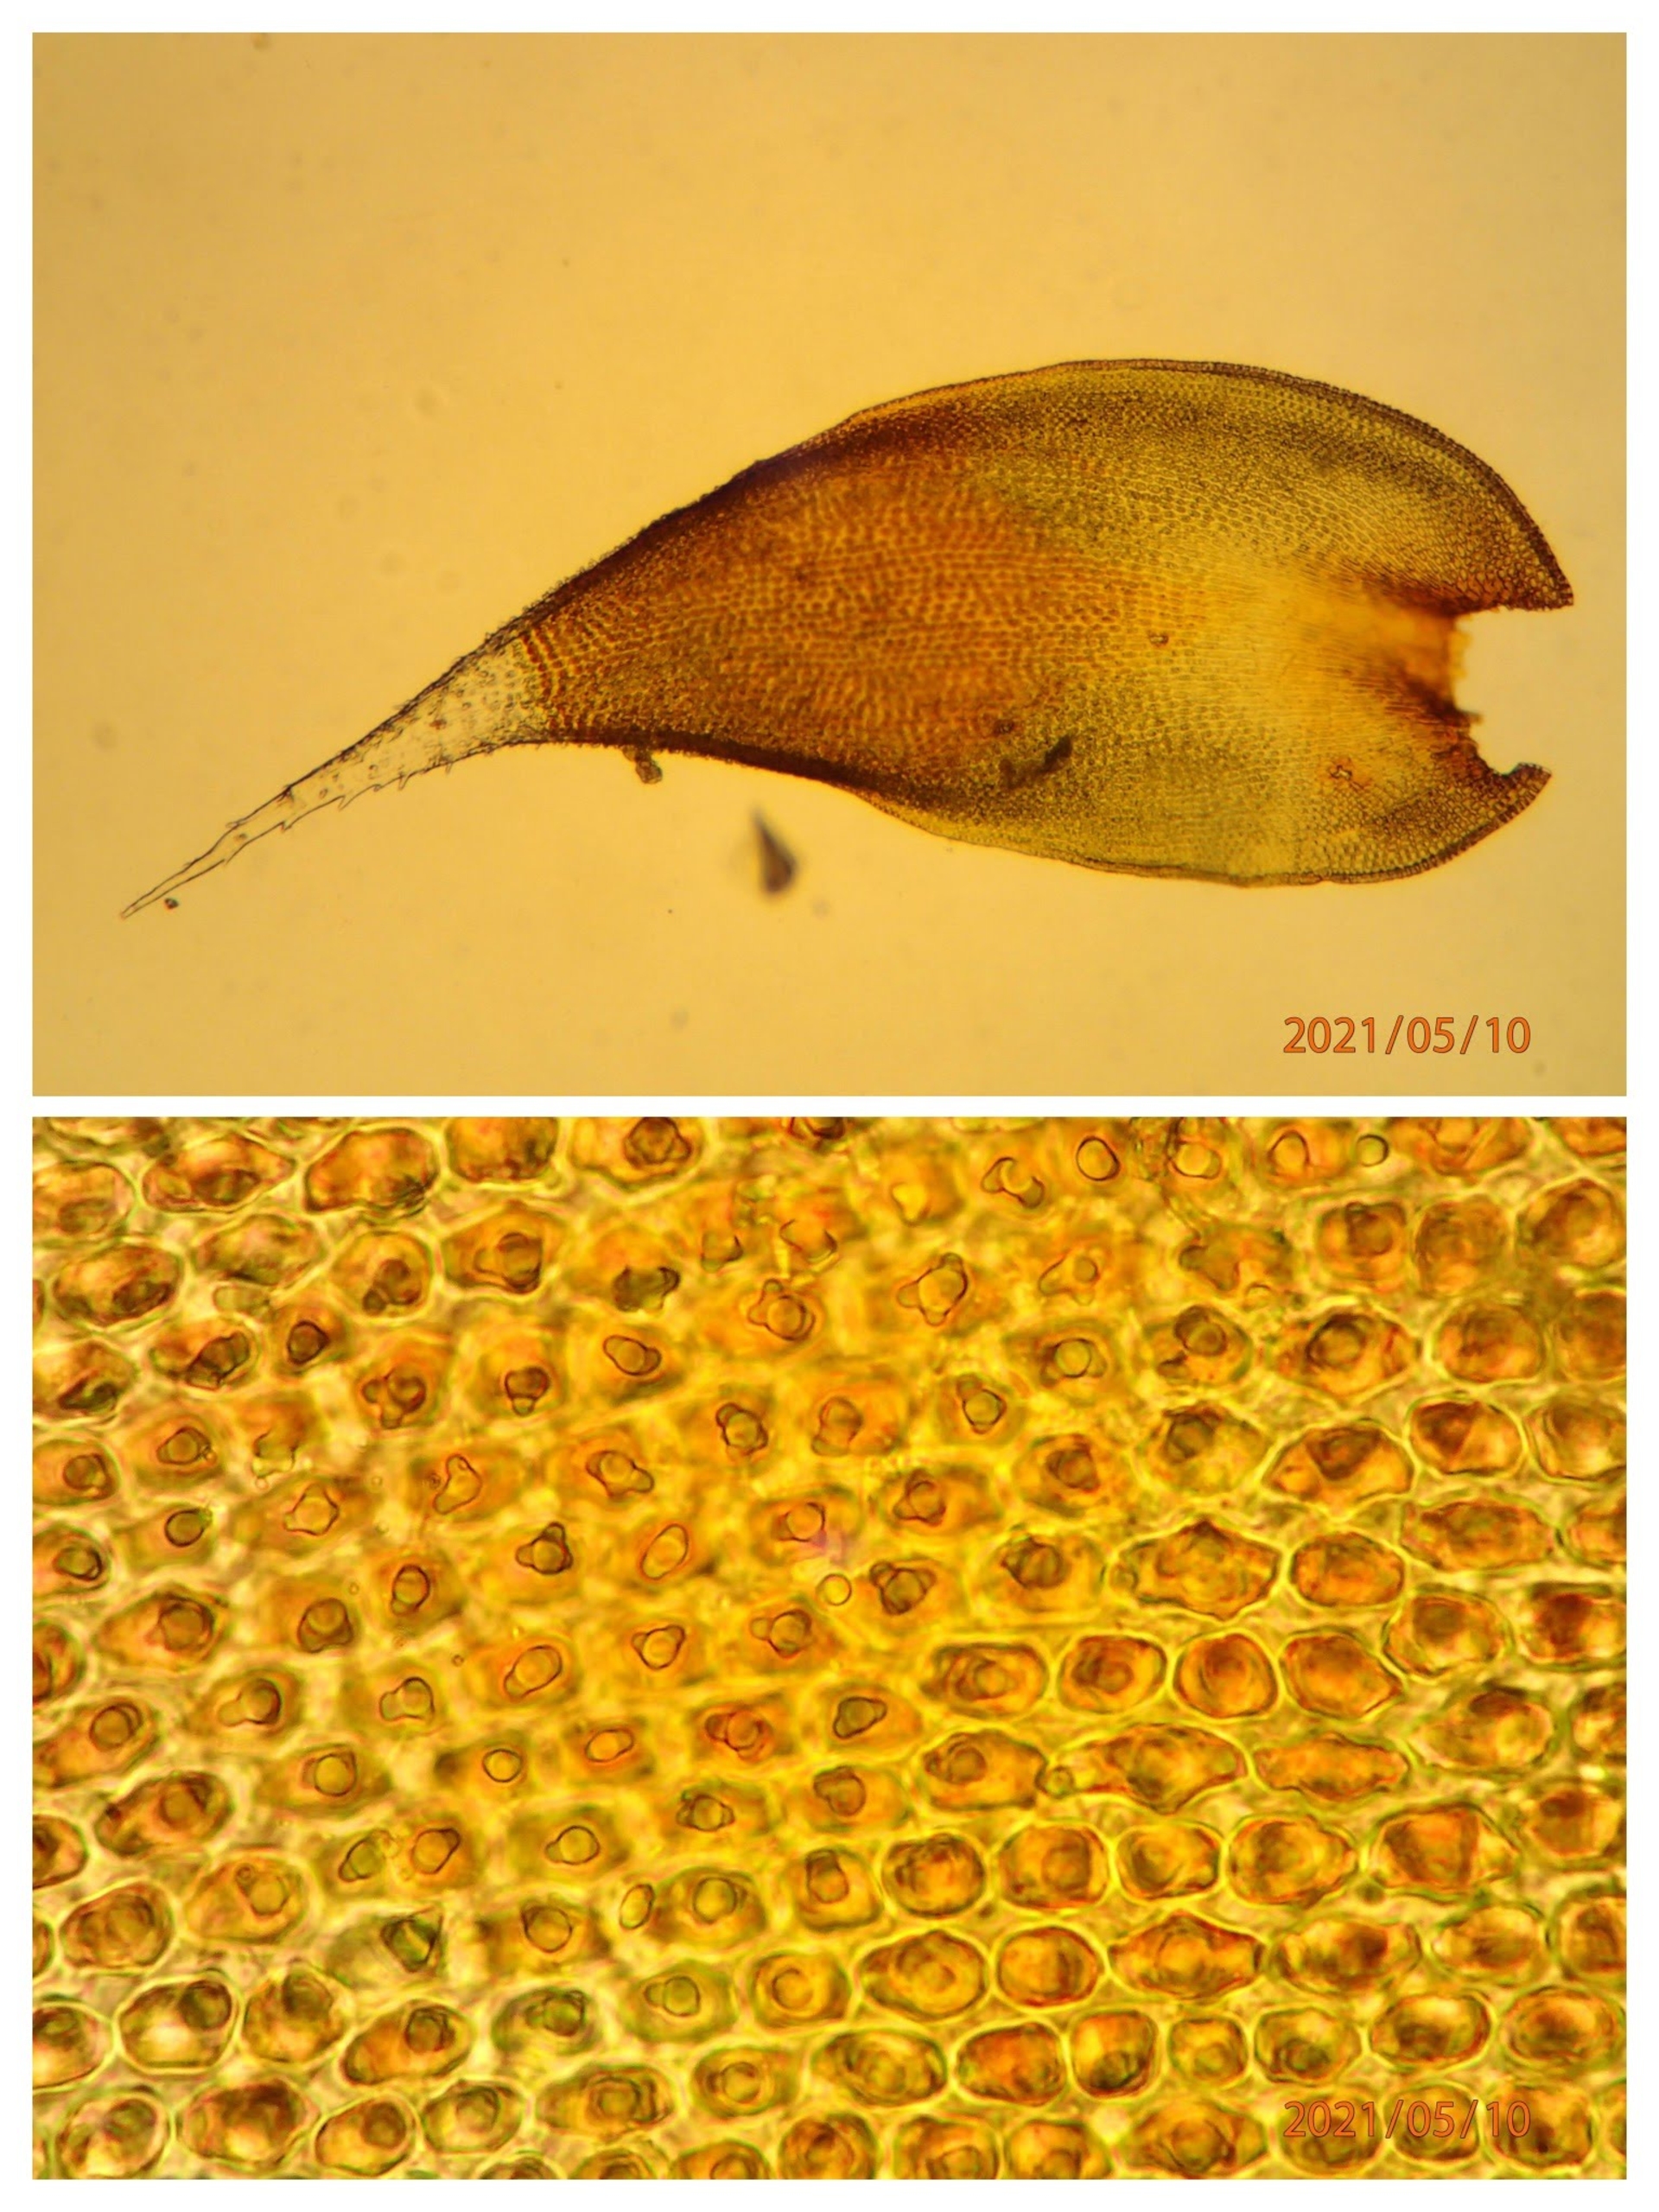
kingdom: Plantae
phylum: Bryophyta
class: Bryopsida
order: Hedwigiales
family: Hedwigiaceae
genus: Hedwigia
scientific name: Hedwigia stellata
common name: Stjernebladet hedwigia
